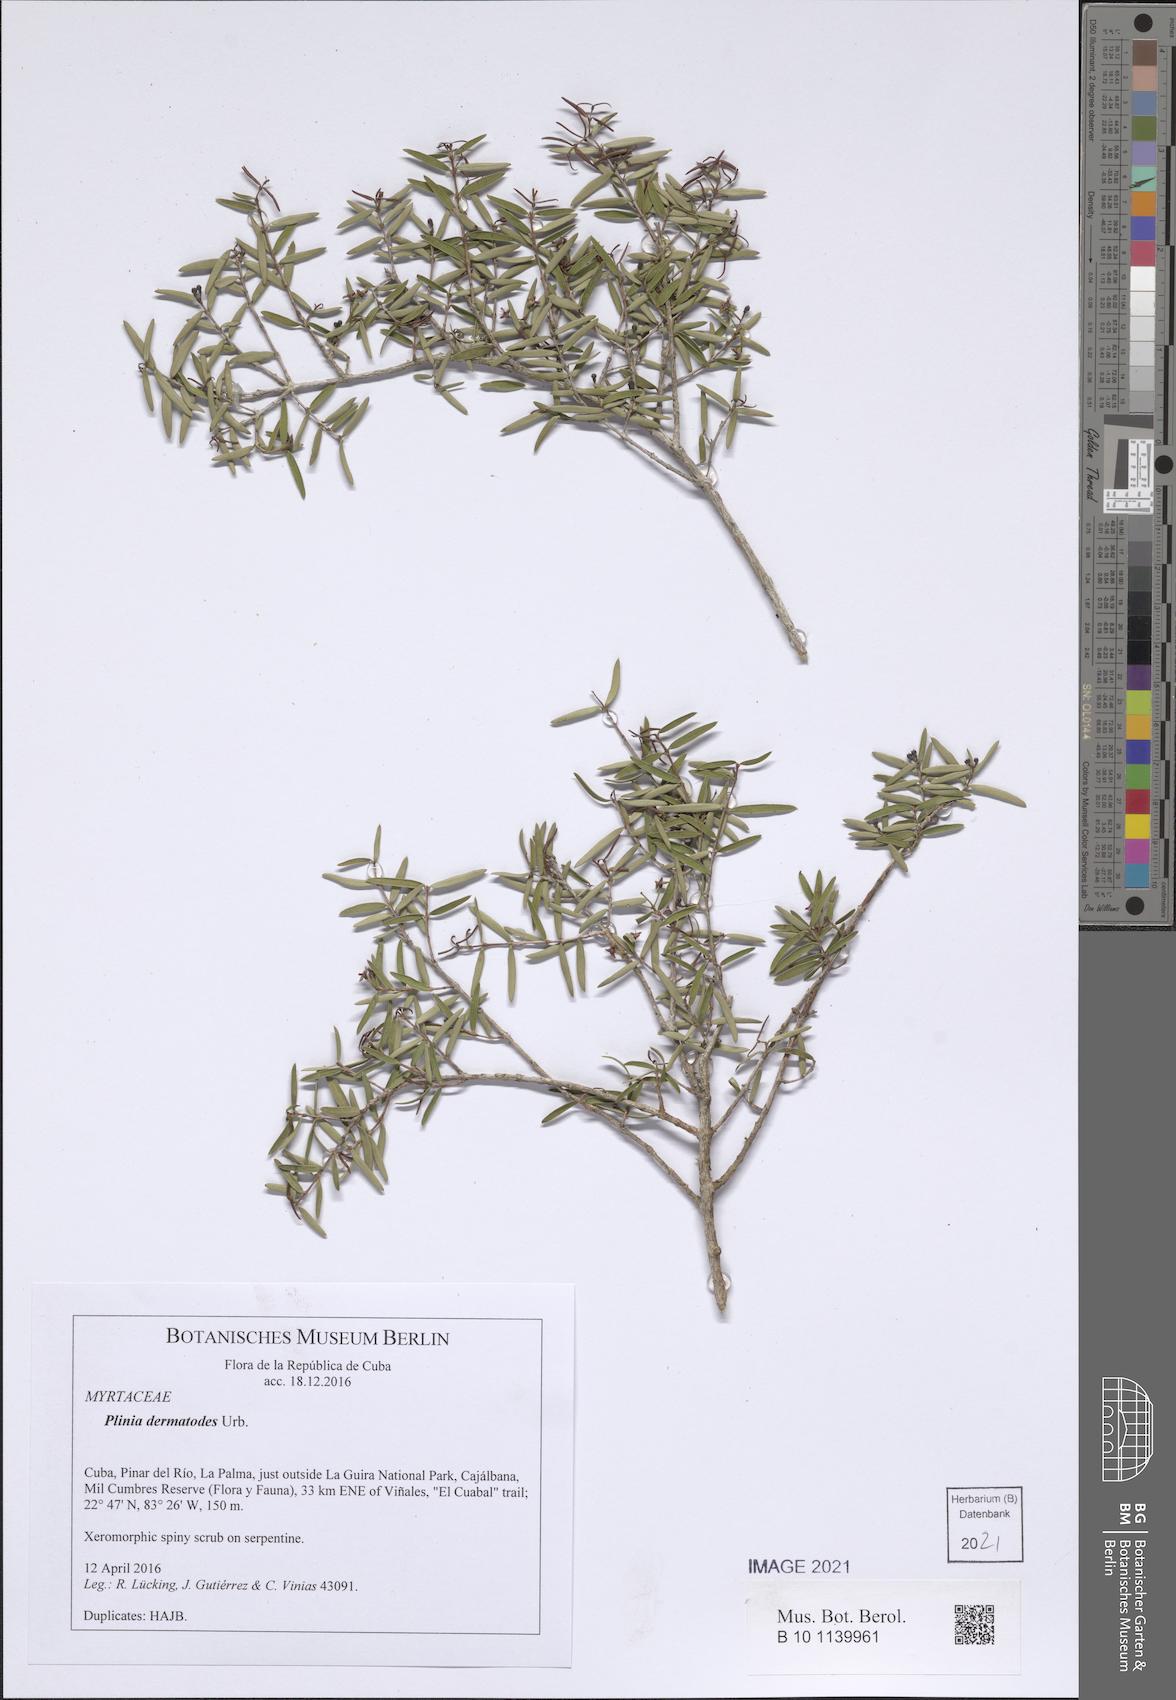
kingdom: Plantae
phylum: Tracheophyta
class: Magnoliopsida
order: Myrtales
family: Myrtaceae
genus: Eugenia
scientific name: Eugenia oligandra
